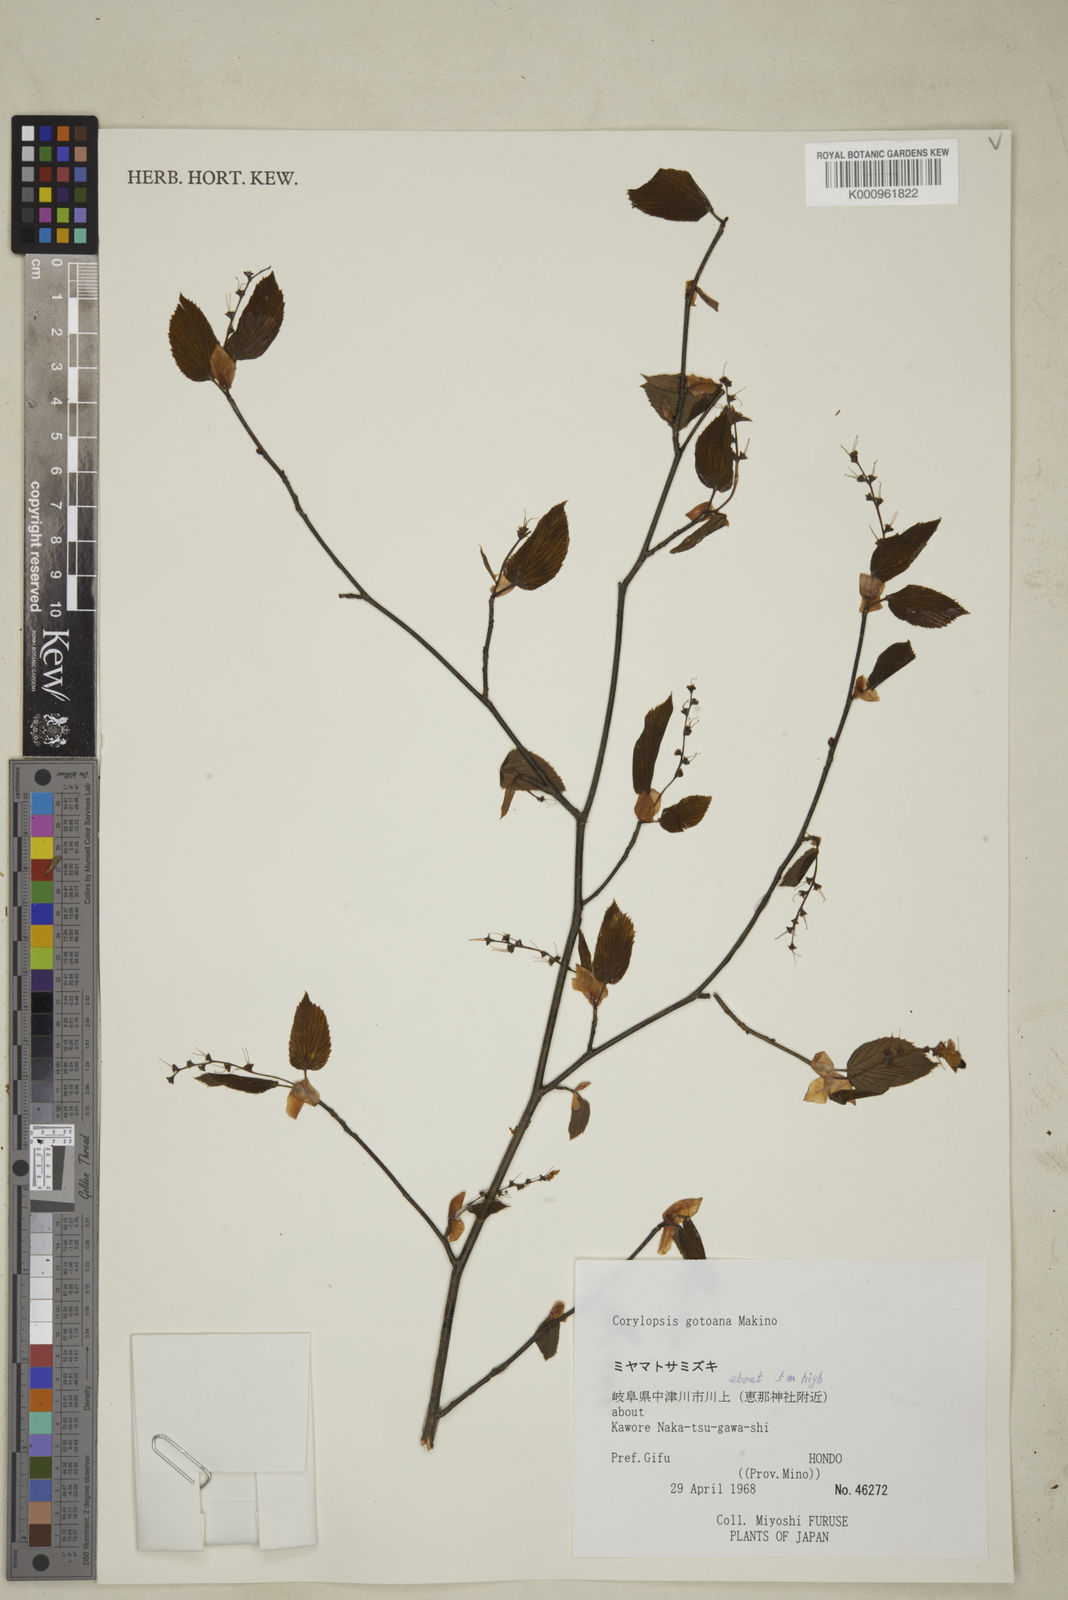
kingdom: Plantae
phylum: Tracheophyta
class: Magnoliopsida
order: Saxifragales
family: Hamamelidaceae
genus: Corylopsis
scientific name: Corylopsis glabrescens
